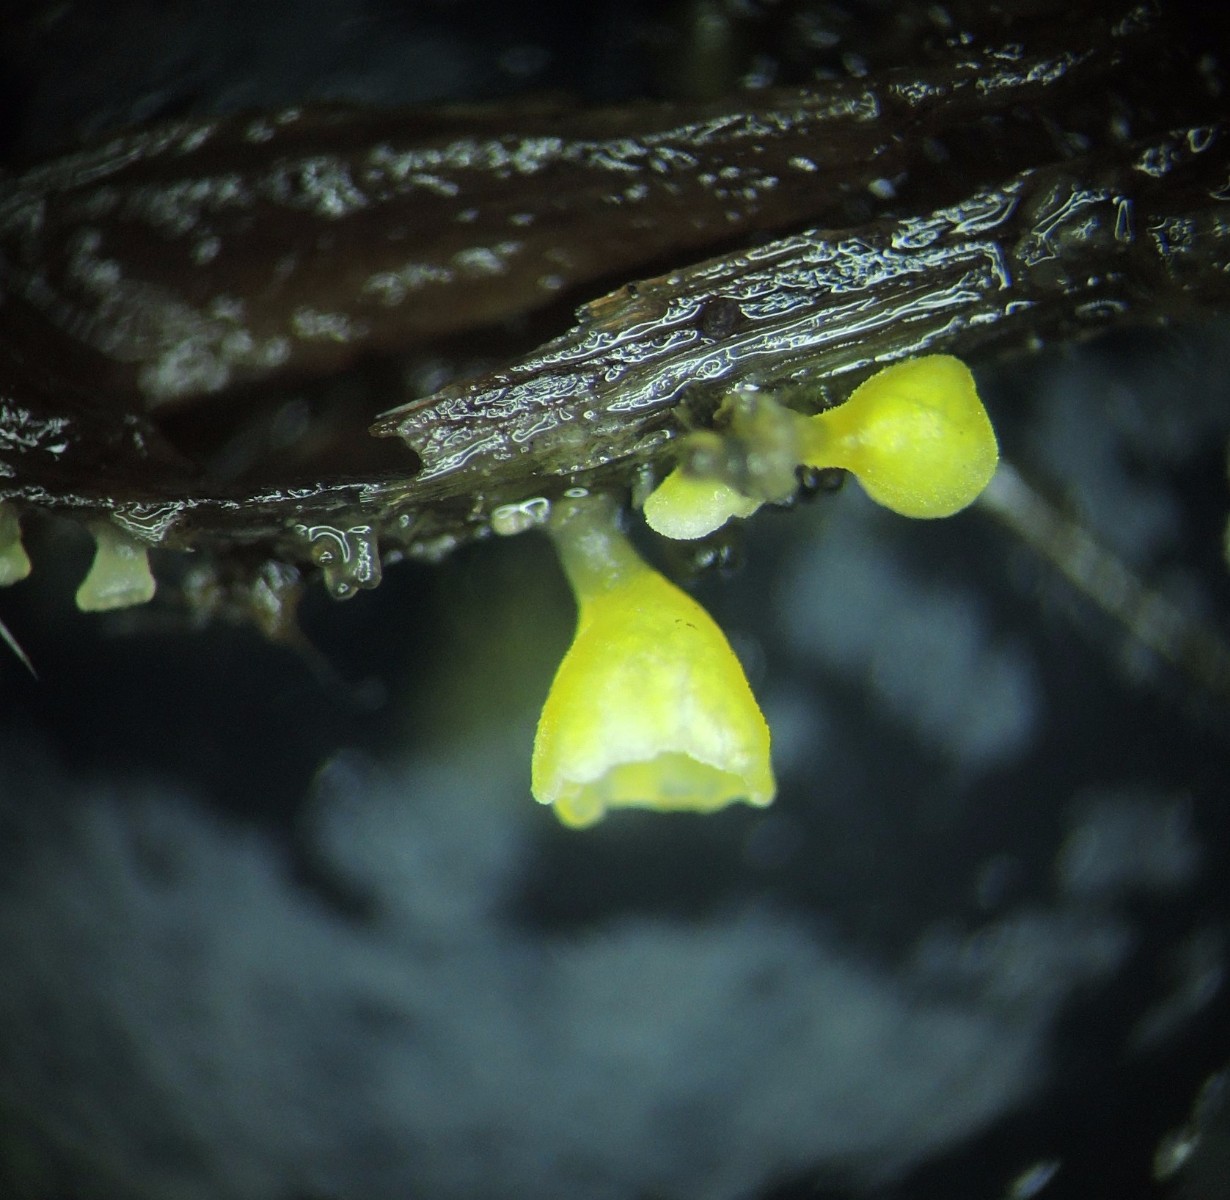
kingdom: Fungi
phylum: Basidiomycota
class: Agaricomycetes
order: Agaricales
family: Marasmiaceae
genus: Calyptella
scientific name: Calyptella campanula
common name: gul nældehue
